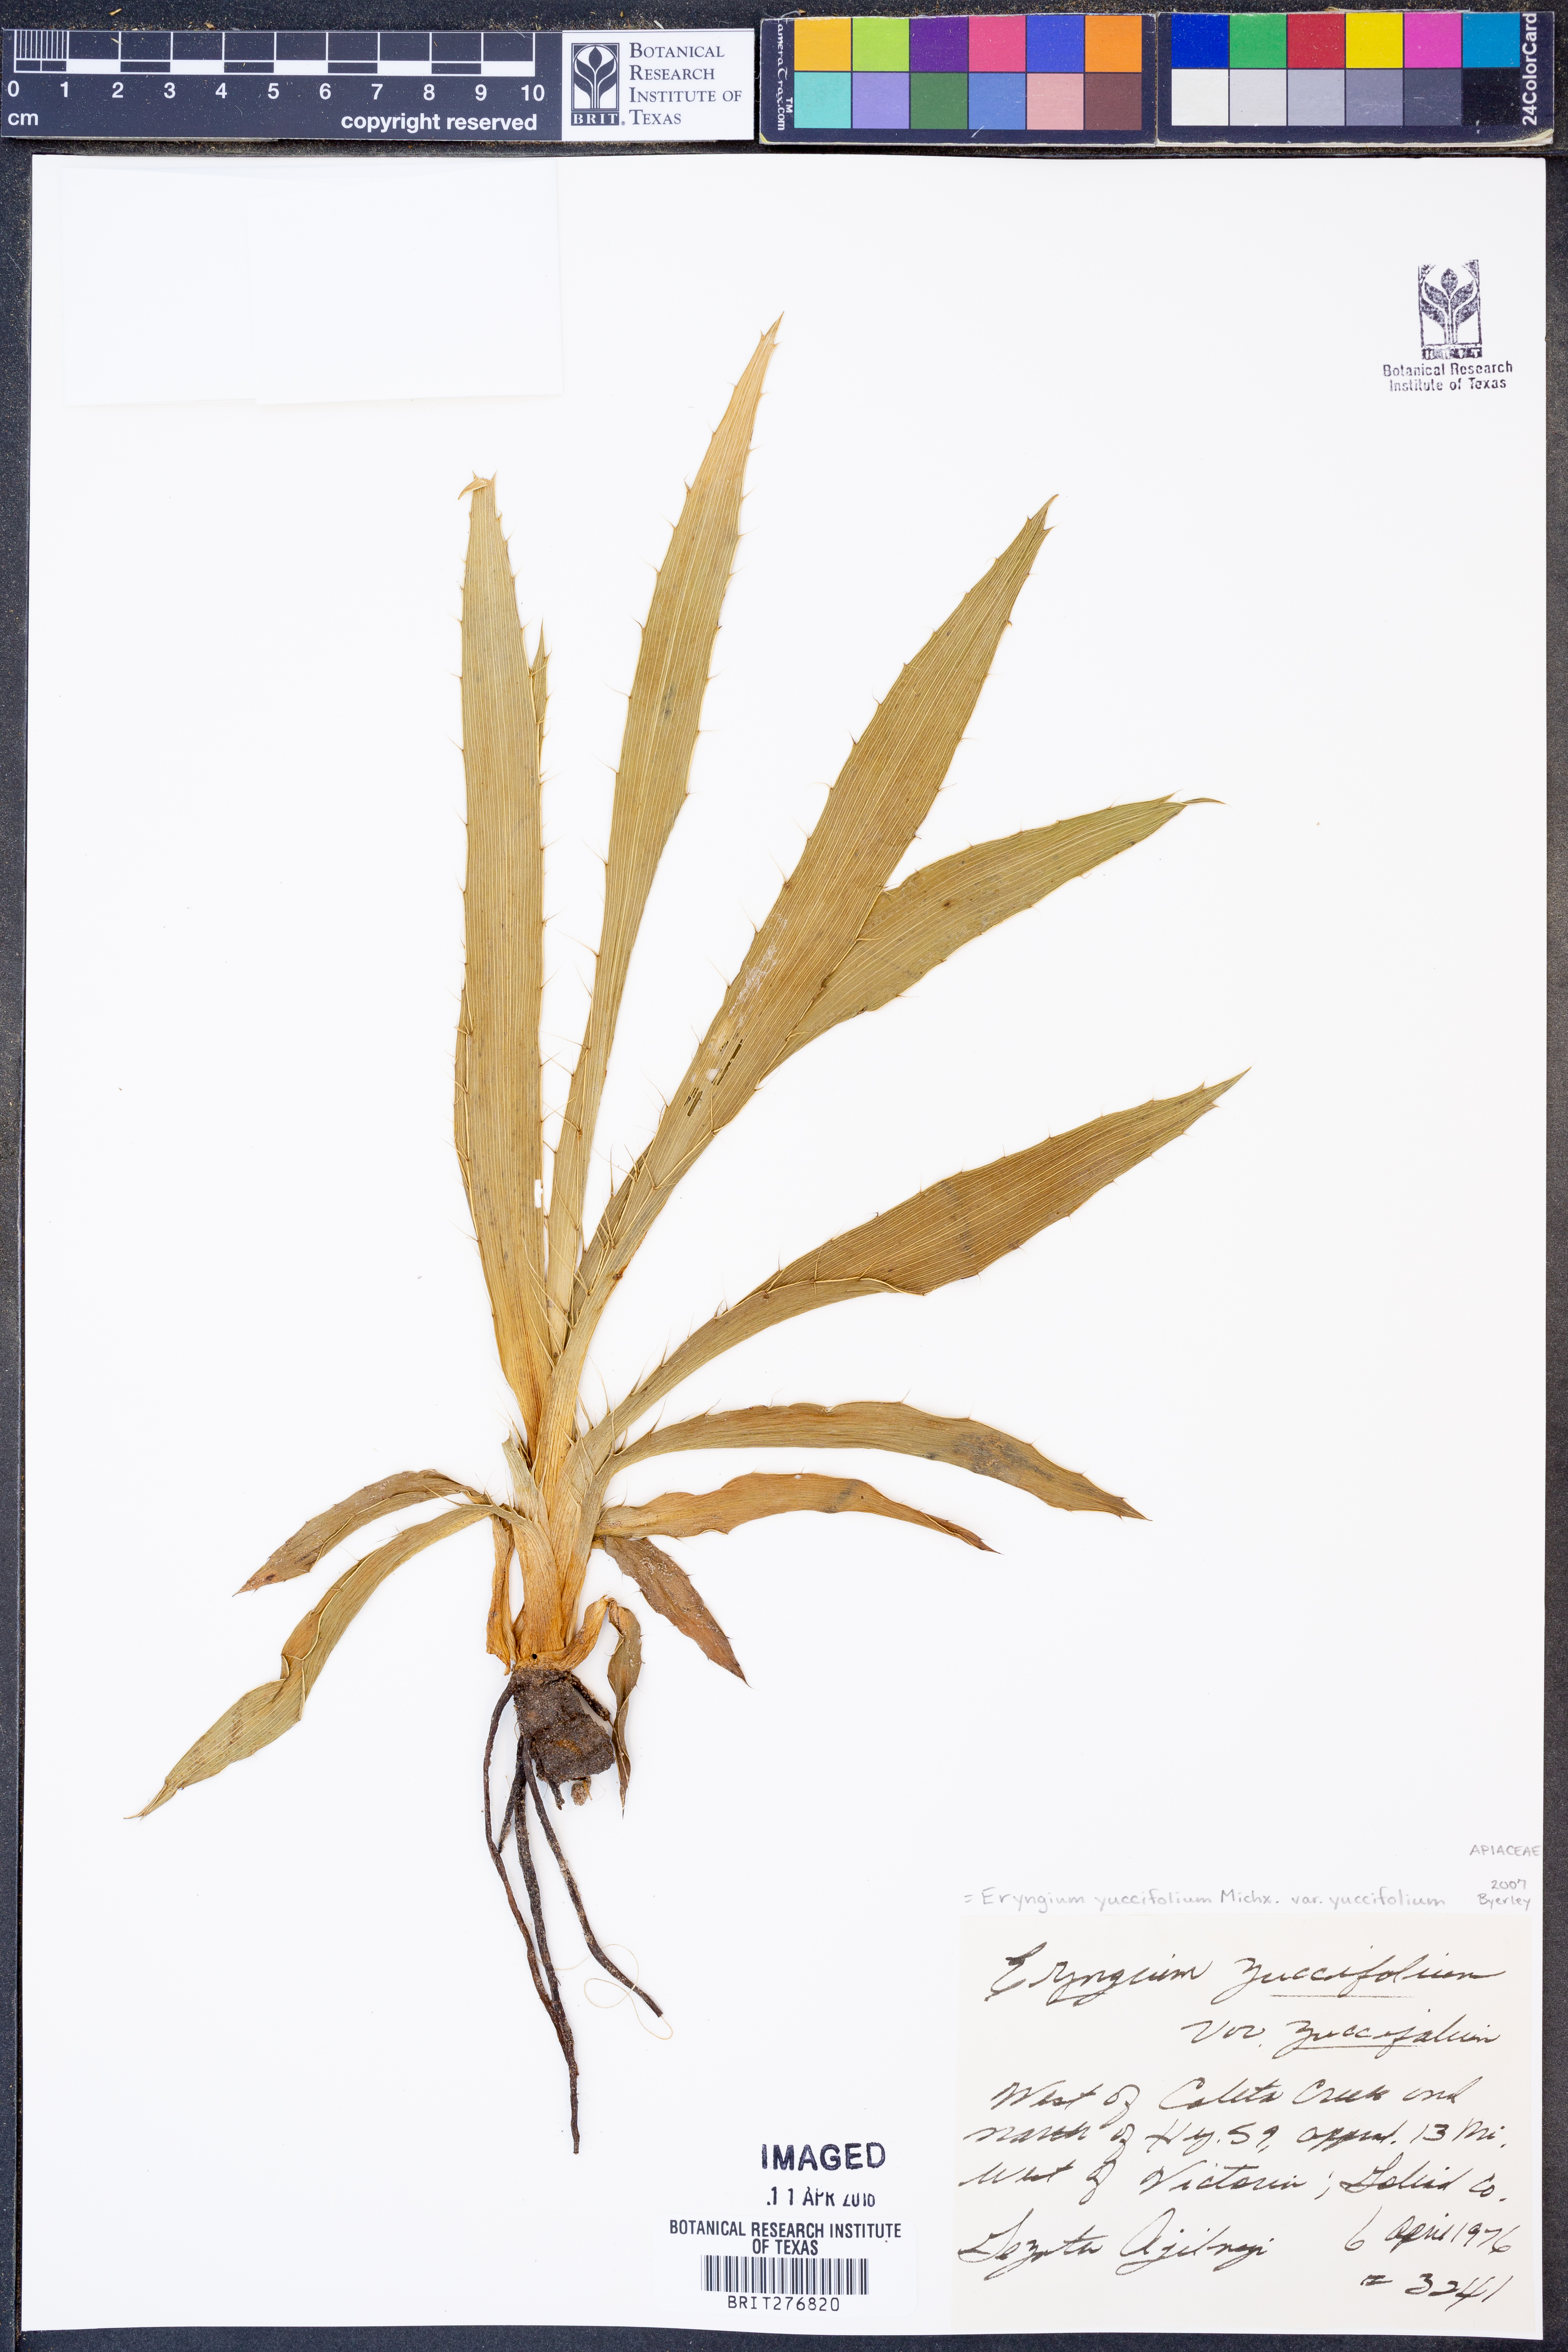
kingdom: Plantae
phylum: Tracheophyta
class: Magnoliopsida
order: Apiales
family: Apiaceae
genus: Eryngium
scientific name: Eryngium yuccifolium
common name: Button eryngo
